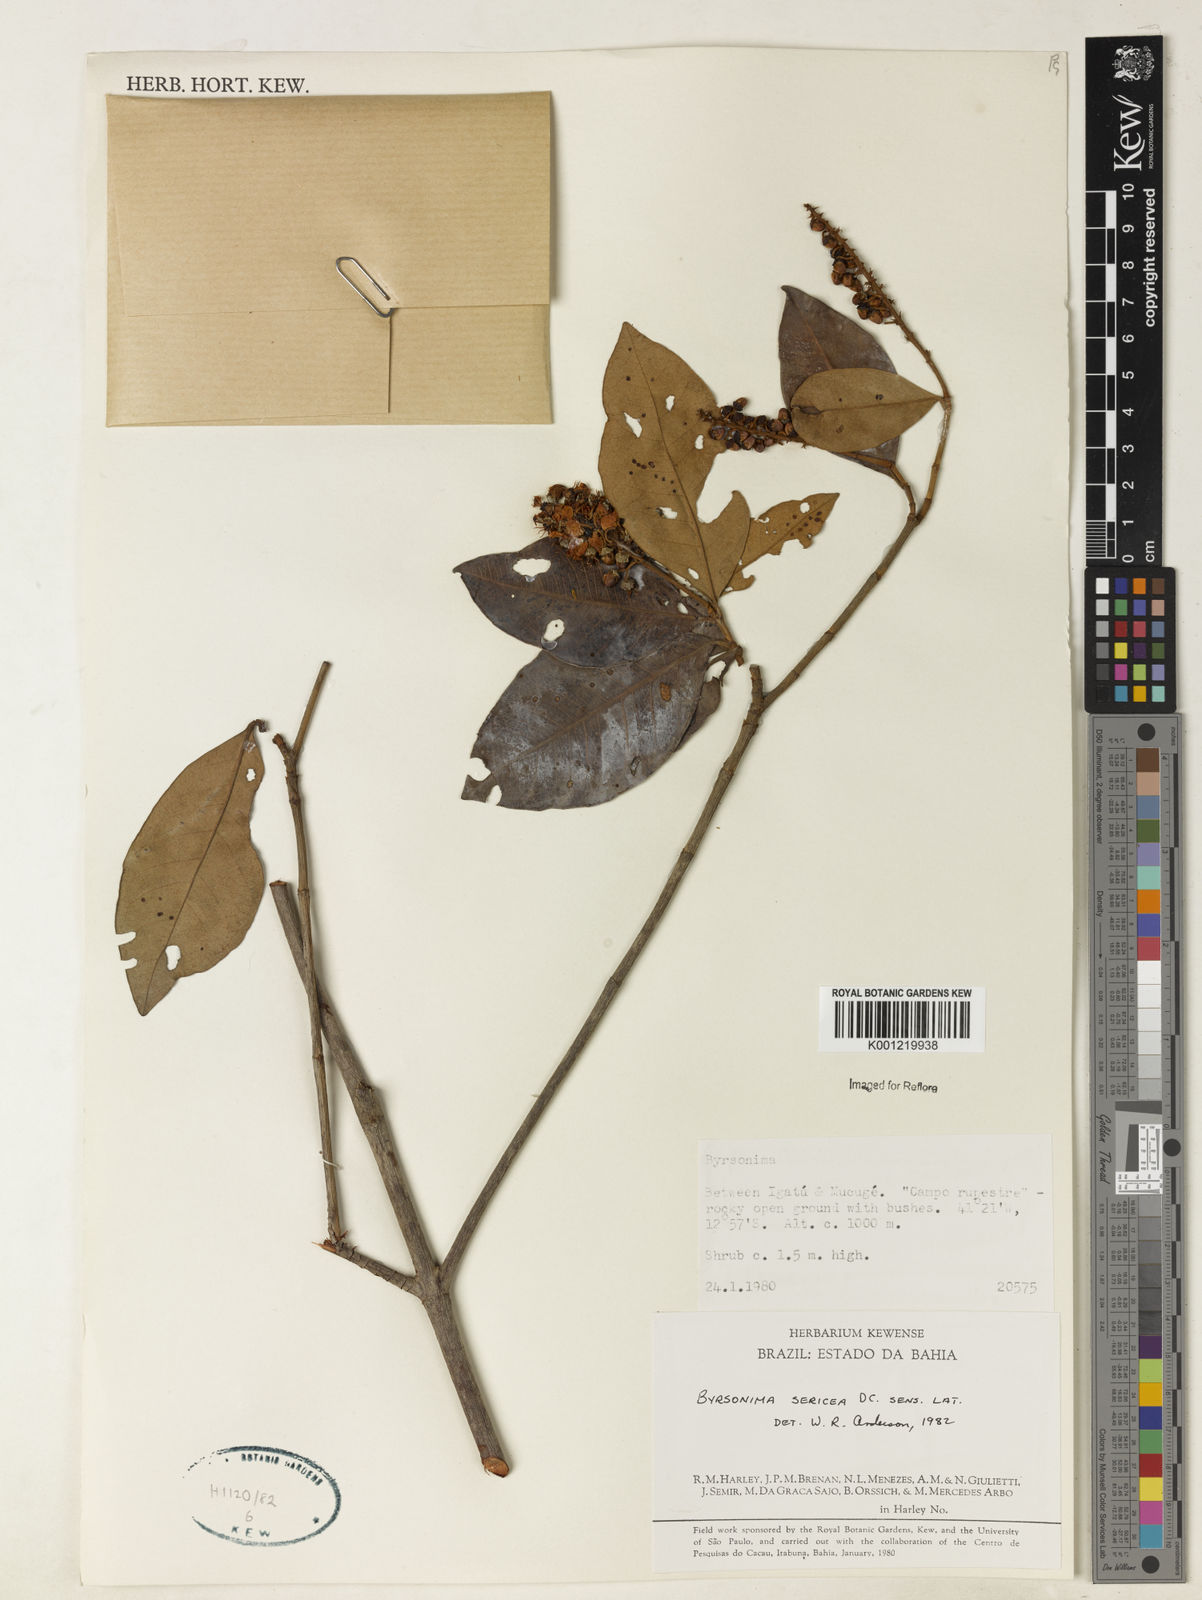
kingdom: Plantae
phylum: Tracheophyta
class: Magnoliopsida
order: Malpighiales
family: Malpighiaceae
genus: Byrsonima
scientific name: Byrsonima sericea
